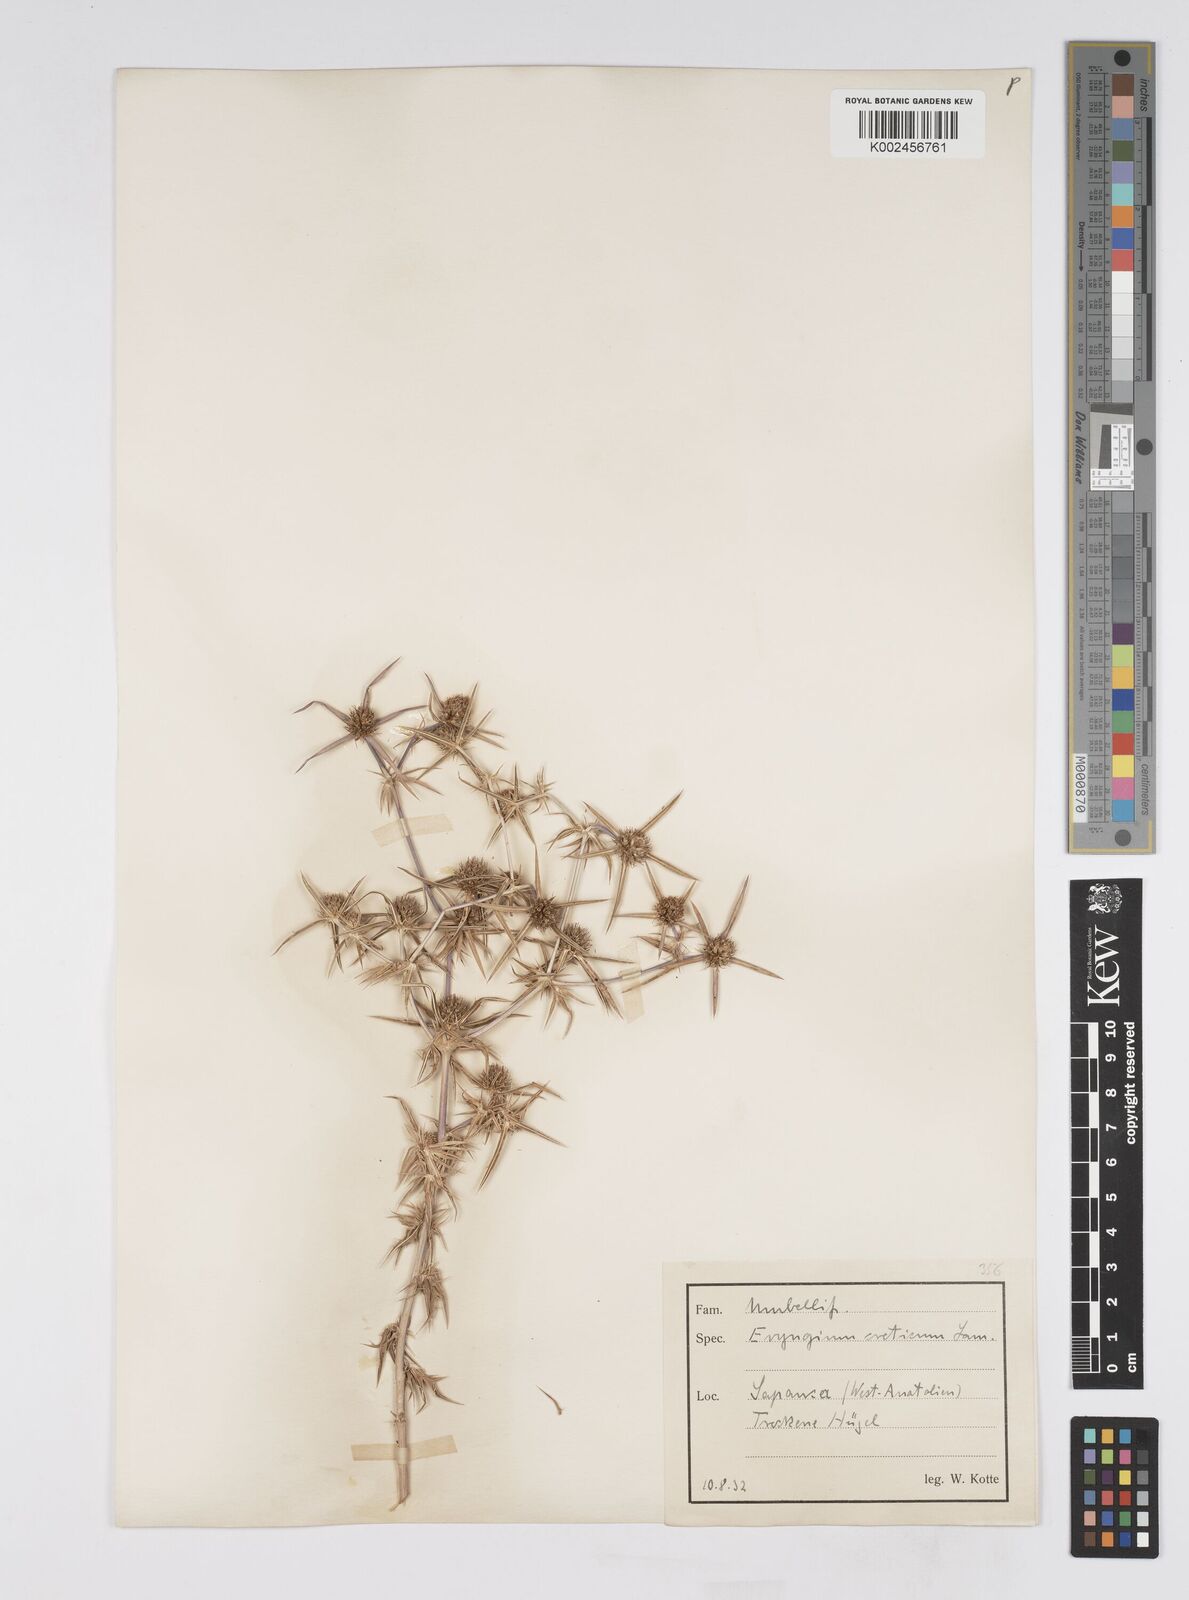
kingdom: Plantae
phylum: Tracheophyta
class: Magnoliopsida
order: Apiales
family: Apiaceae
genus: Eryngium
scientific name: Eryngium creticum
